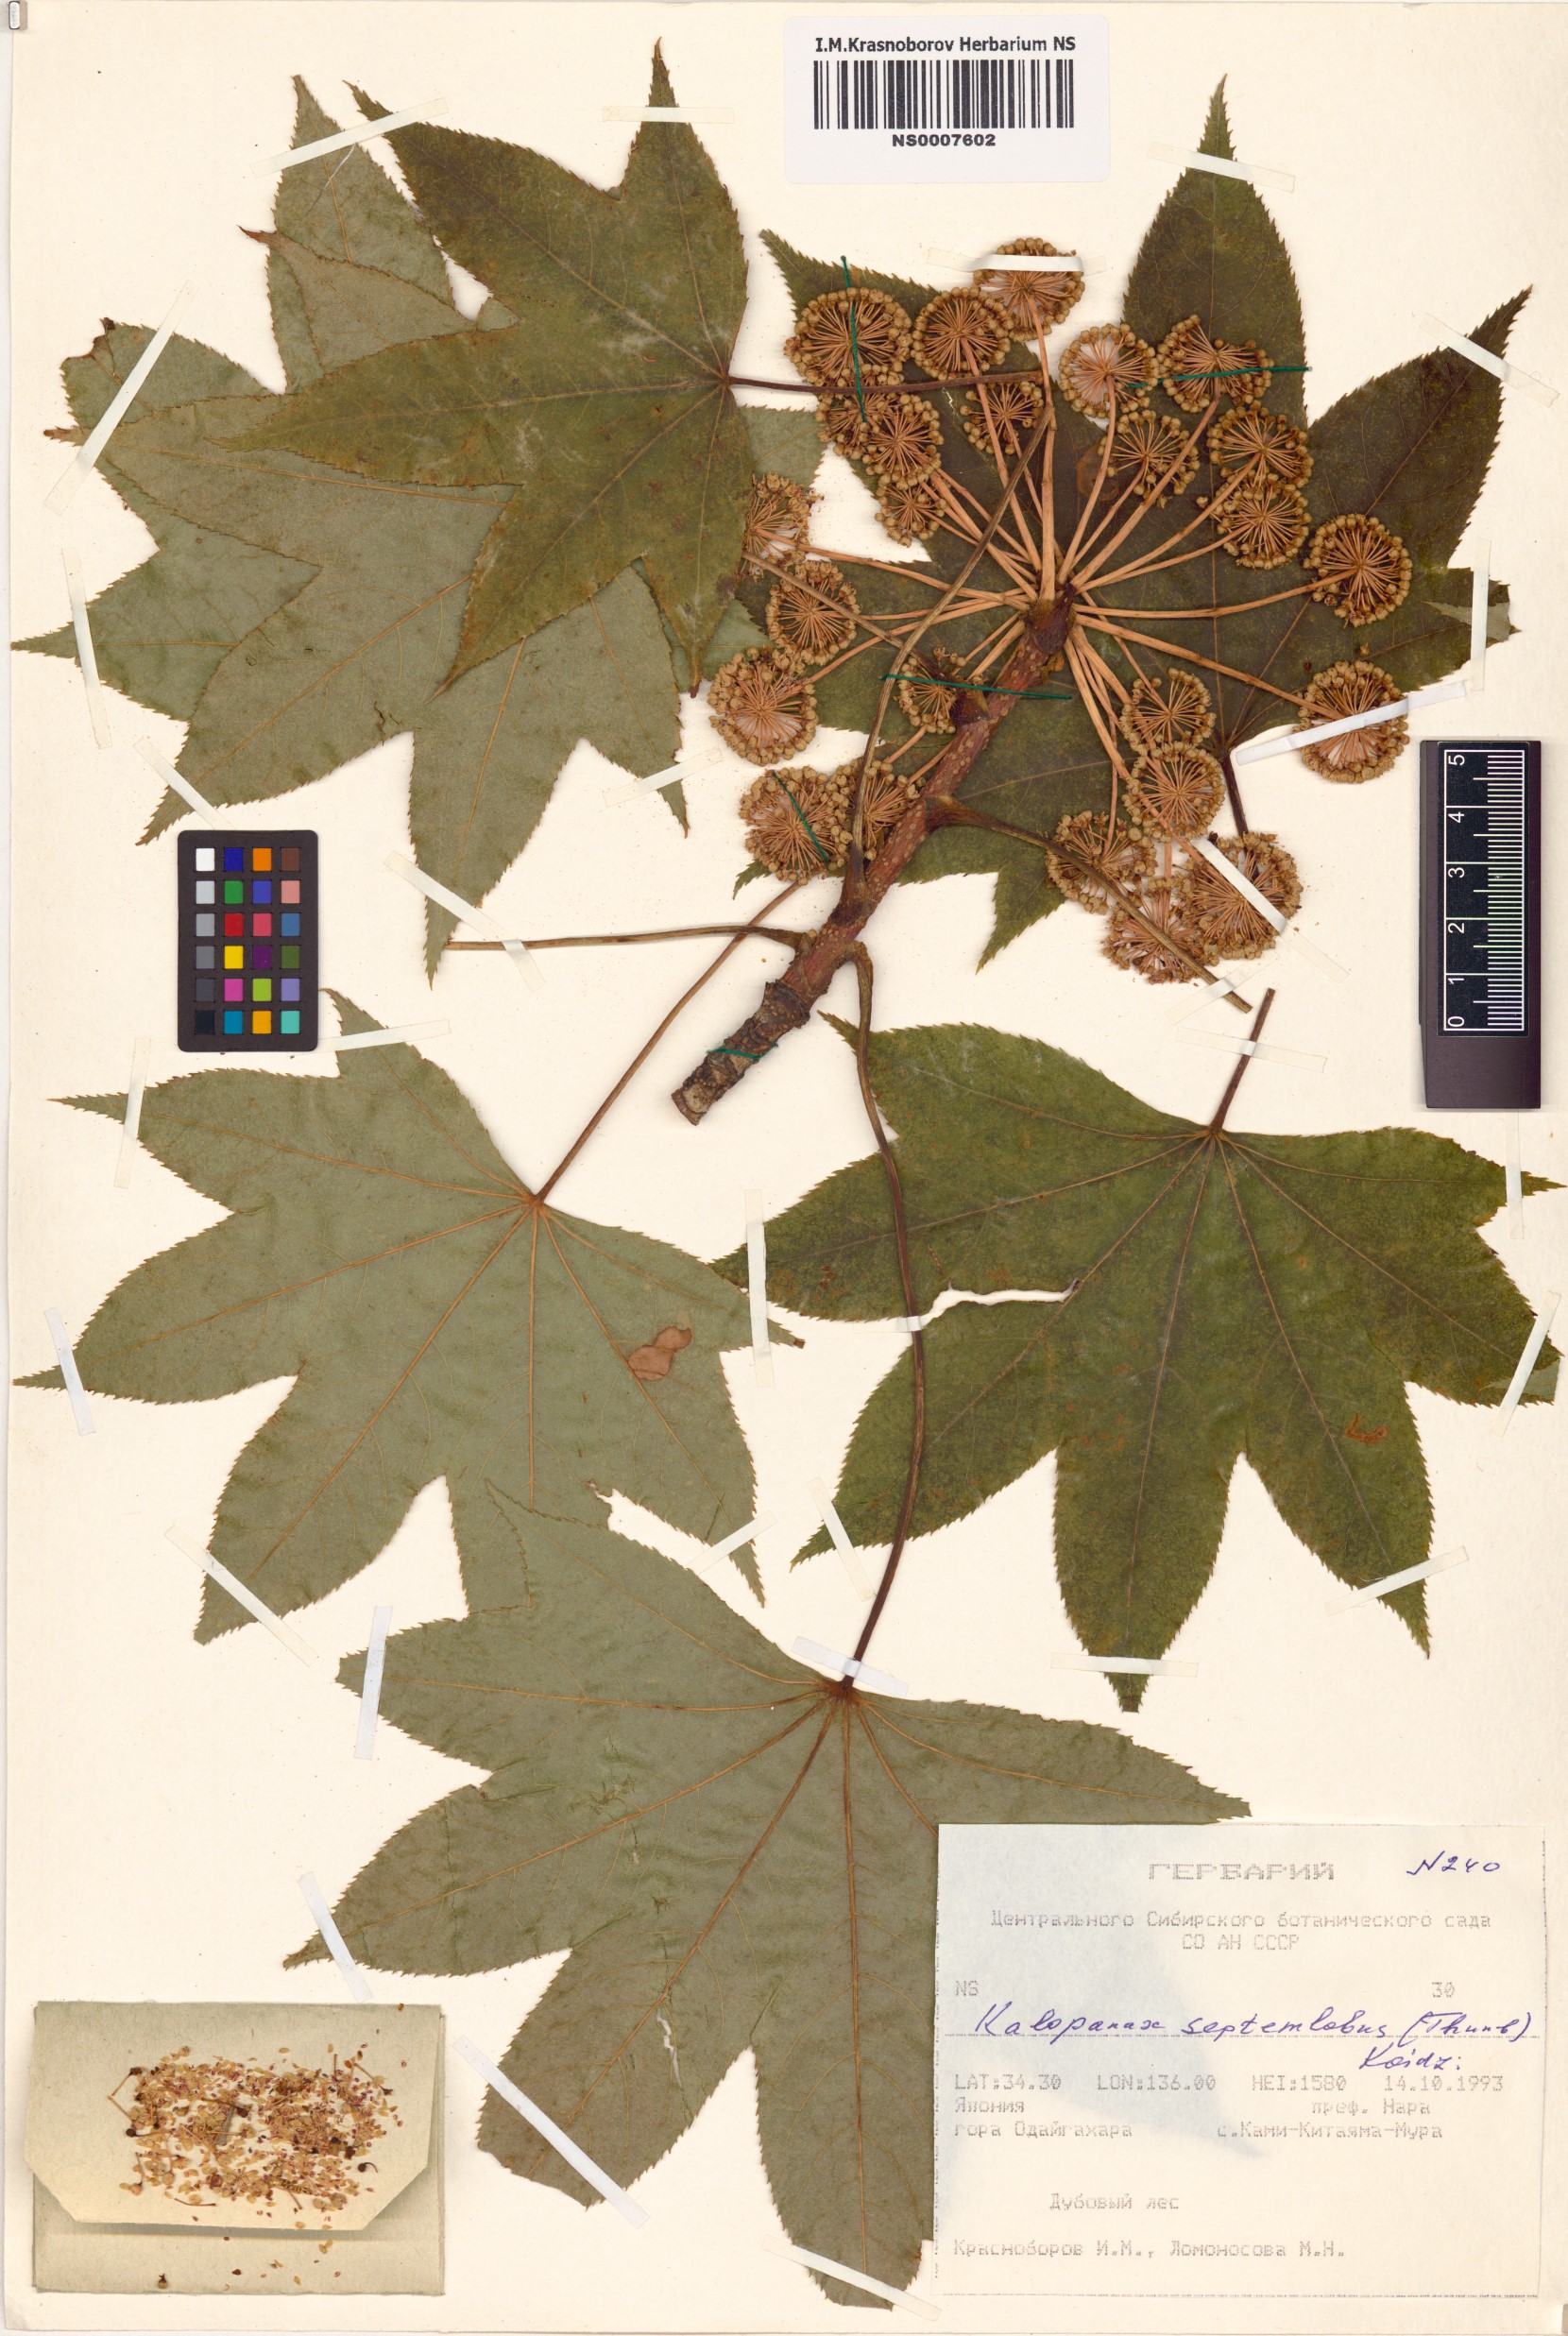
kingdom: Plantae
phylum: Tracheophyta
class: Magnoliopsida
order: Apiales
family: Araliaceae
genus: Kalopanax
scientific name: Kalopanax septemlobus
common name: Castor aralia
